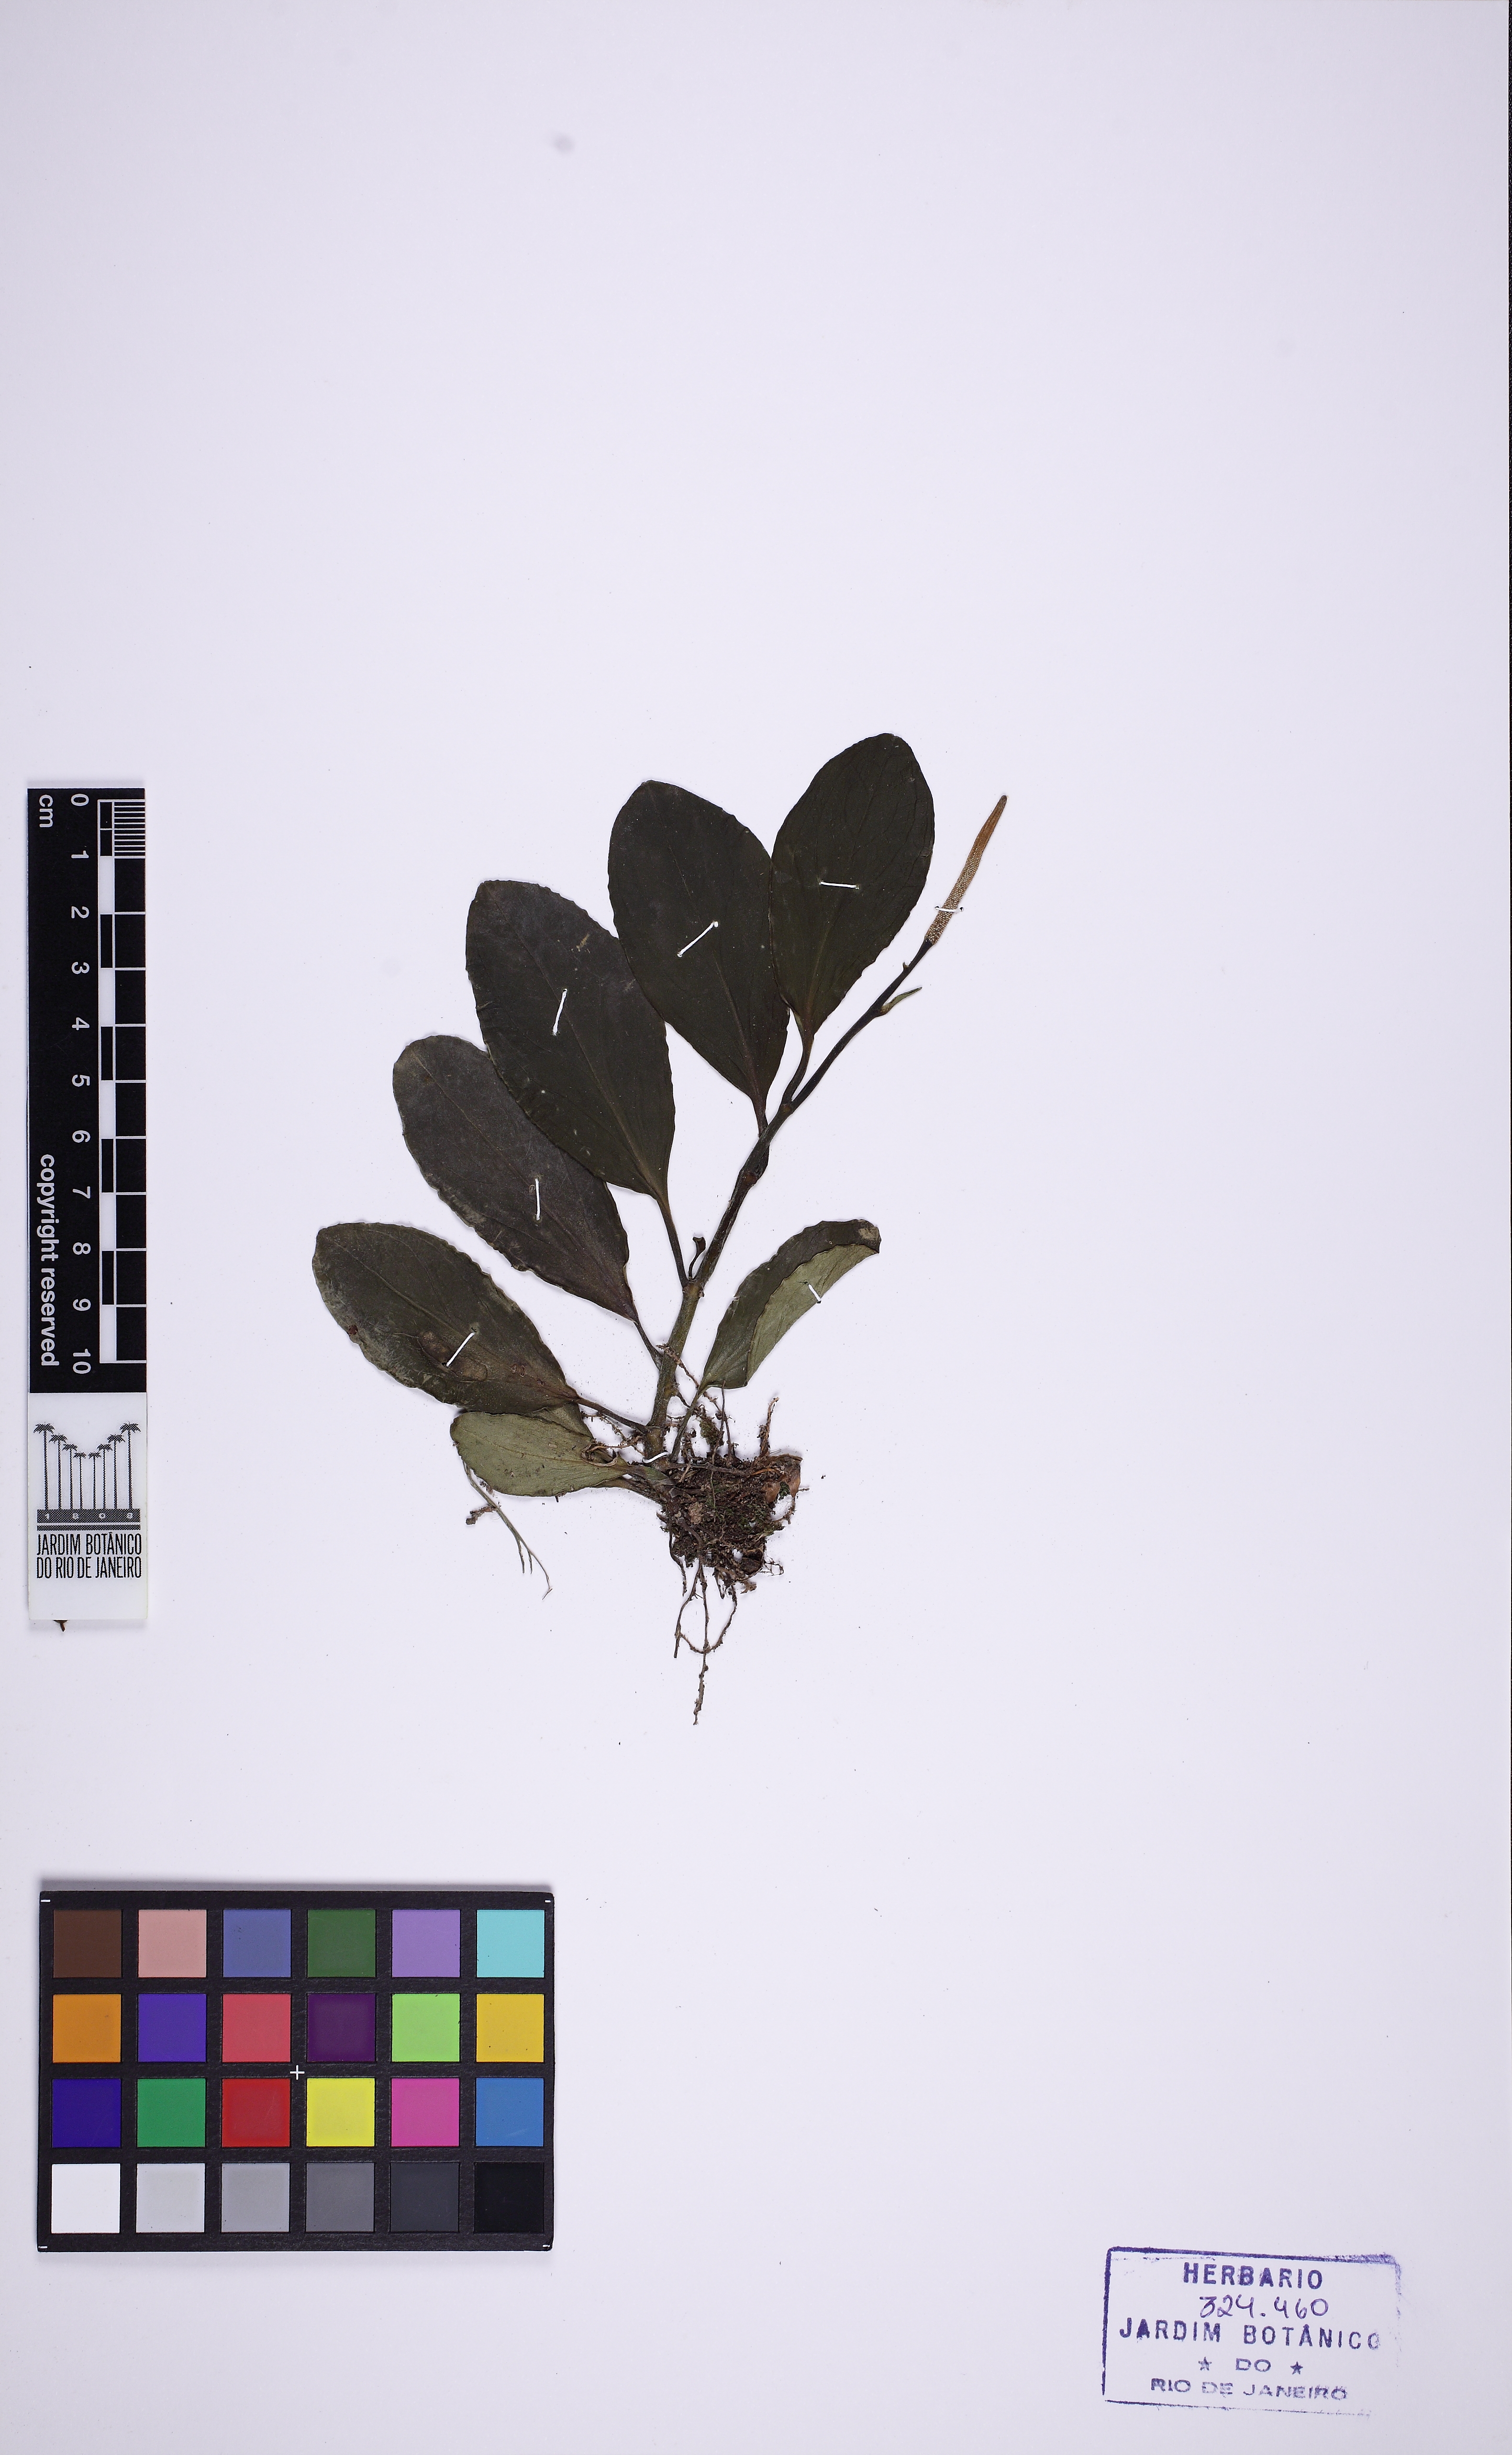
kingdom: Plantae
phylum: Tracheophyta
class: Magnoliopsida
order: Piperales
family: Piperaceae
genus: Peperomia
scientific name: Peperomia obtusifolia
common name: Baby rubberplant
